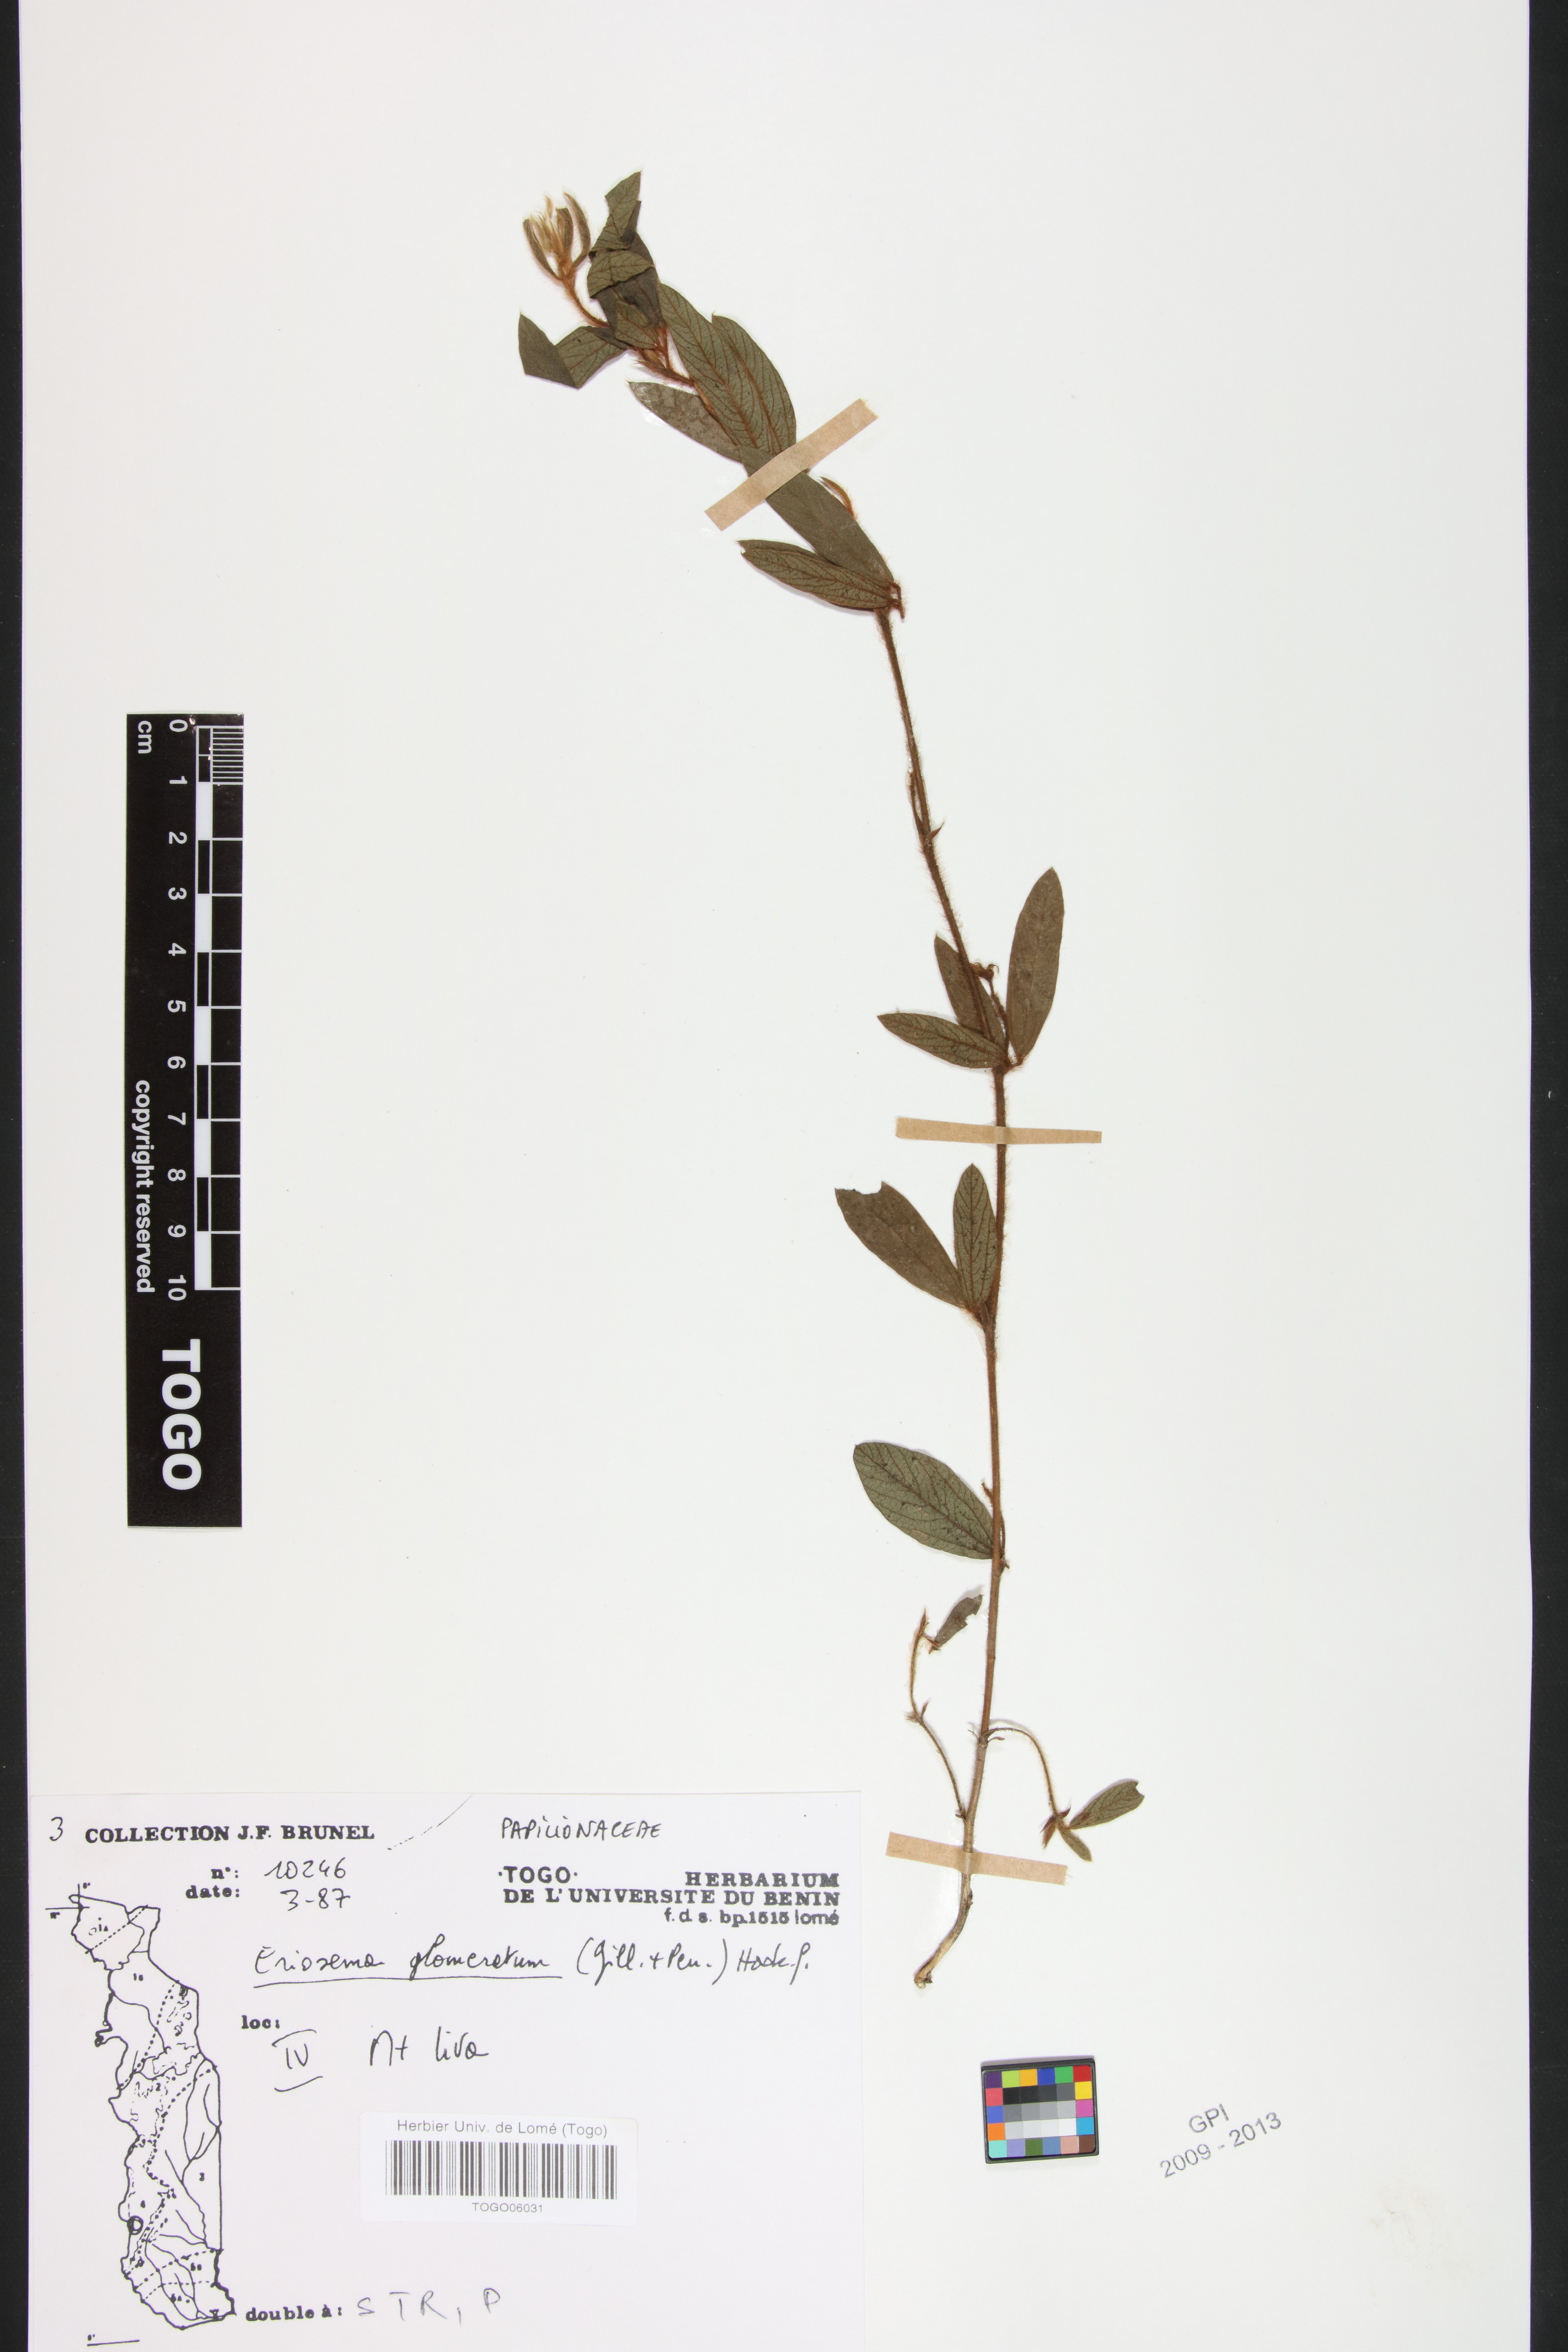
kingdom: Plantae
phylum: Tracheophyta
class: Magnoliopsida
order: Fabales
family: Fabaceae
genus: Eriosema
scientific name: Eriosema glomeratum
